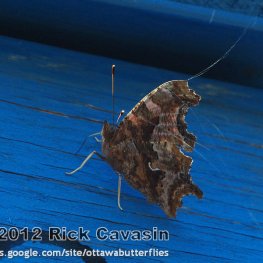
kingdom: Animalia
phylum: Arthropoda
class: Insecta
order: Lepidoptera
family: Nymphalidae
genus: Polygonia
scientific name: Polygonia comma
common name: Eastern Comma
